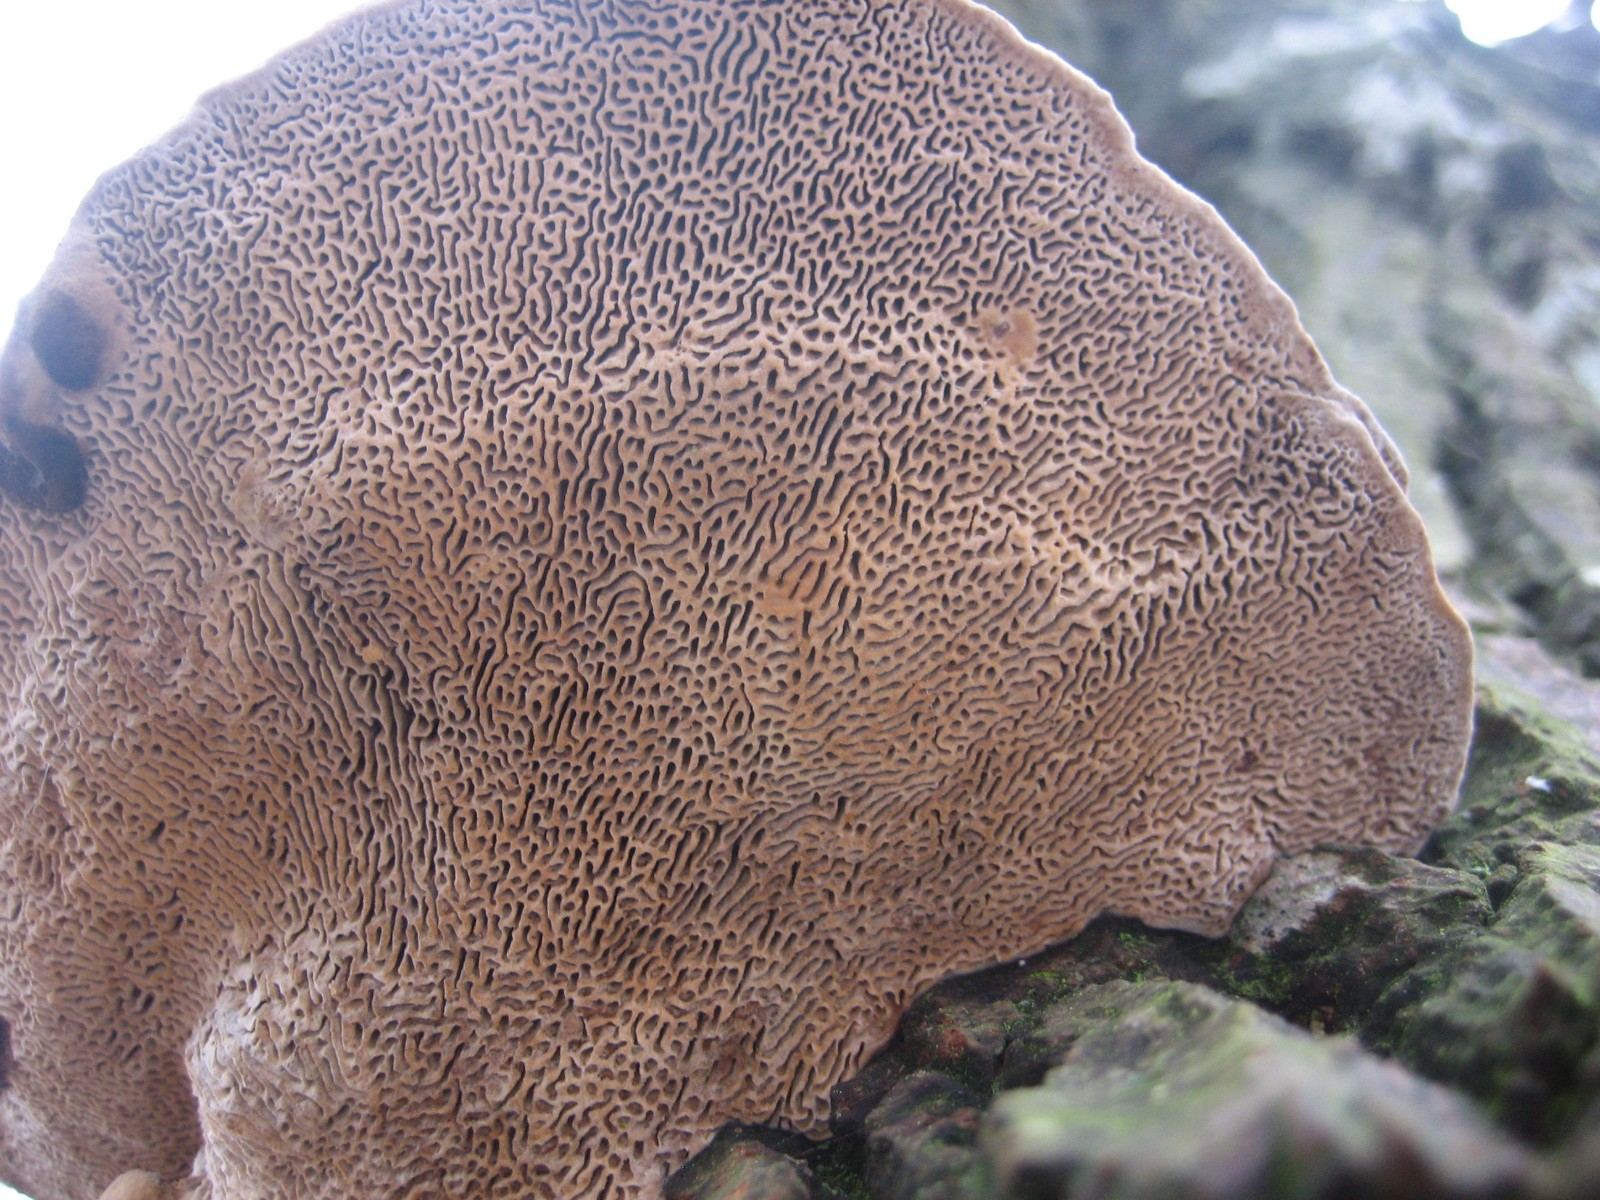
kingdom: Fungi
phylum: Basidiomycota
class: Agaricomycetes
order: Polyporales
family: Polyporaceae
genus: Daedaleopsis
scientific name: Daedaleopsis confragosa
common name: rødmende læderporesvamp
